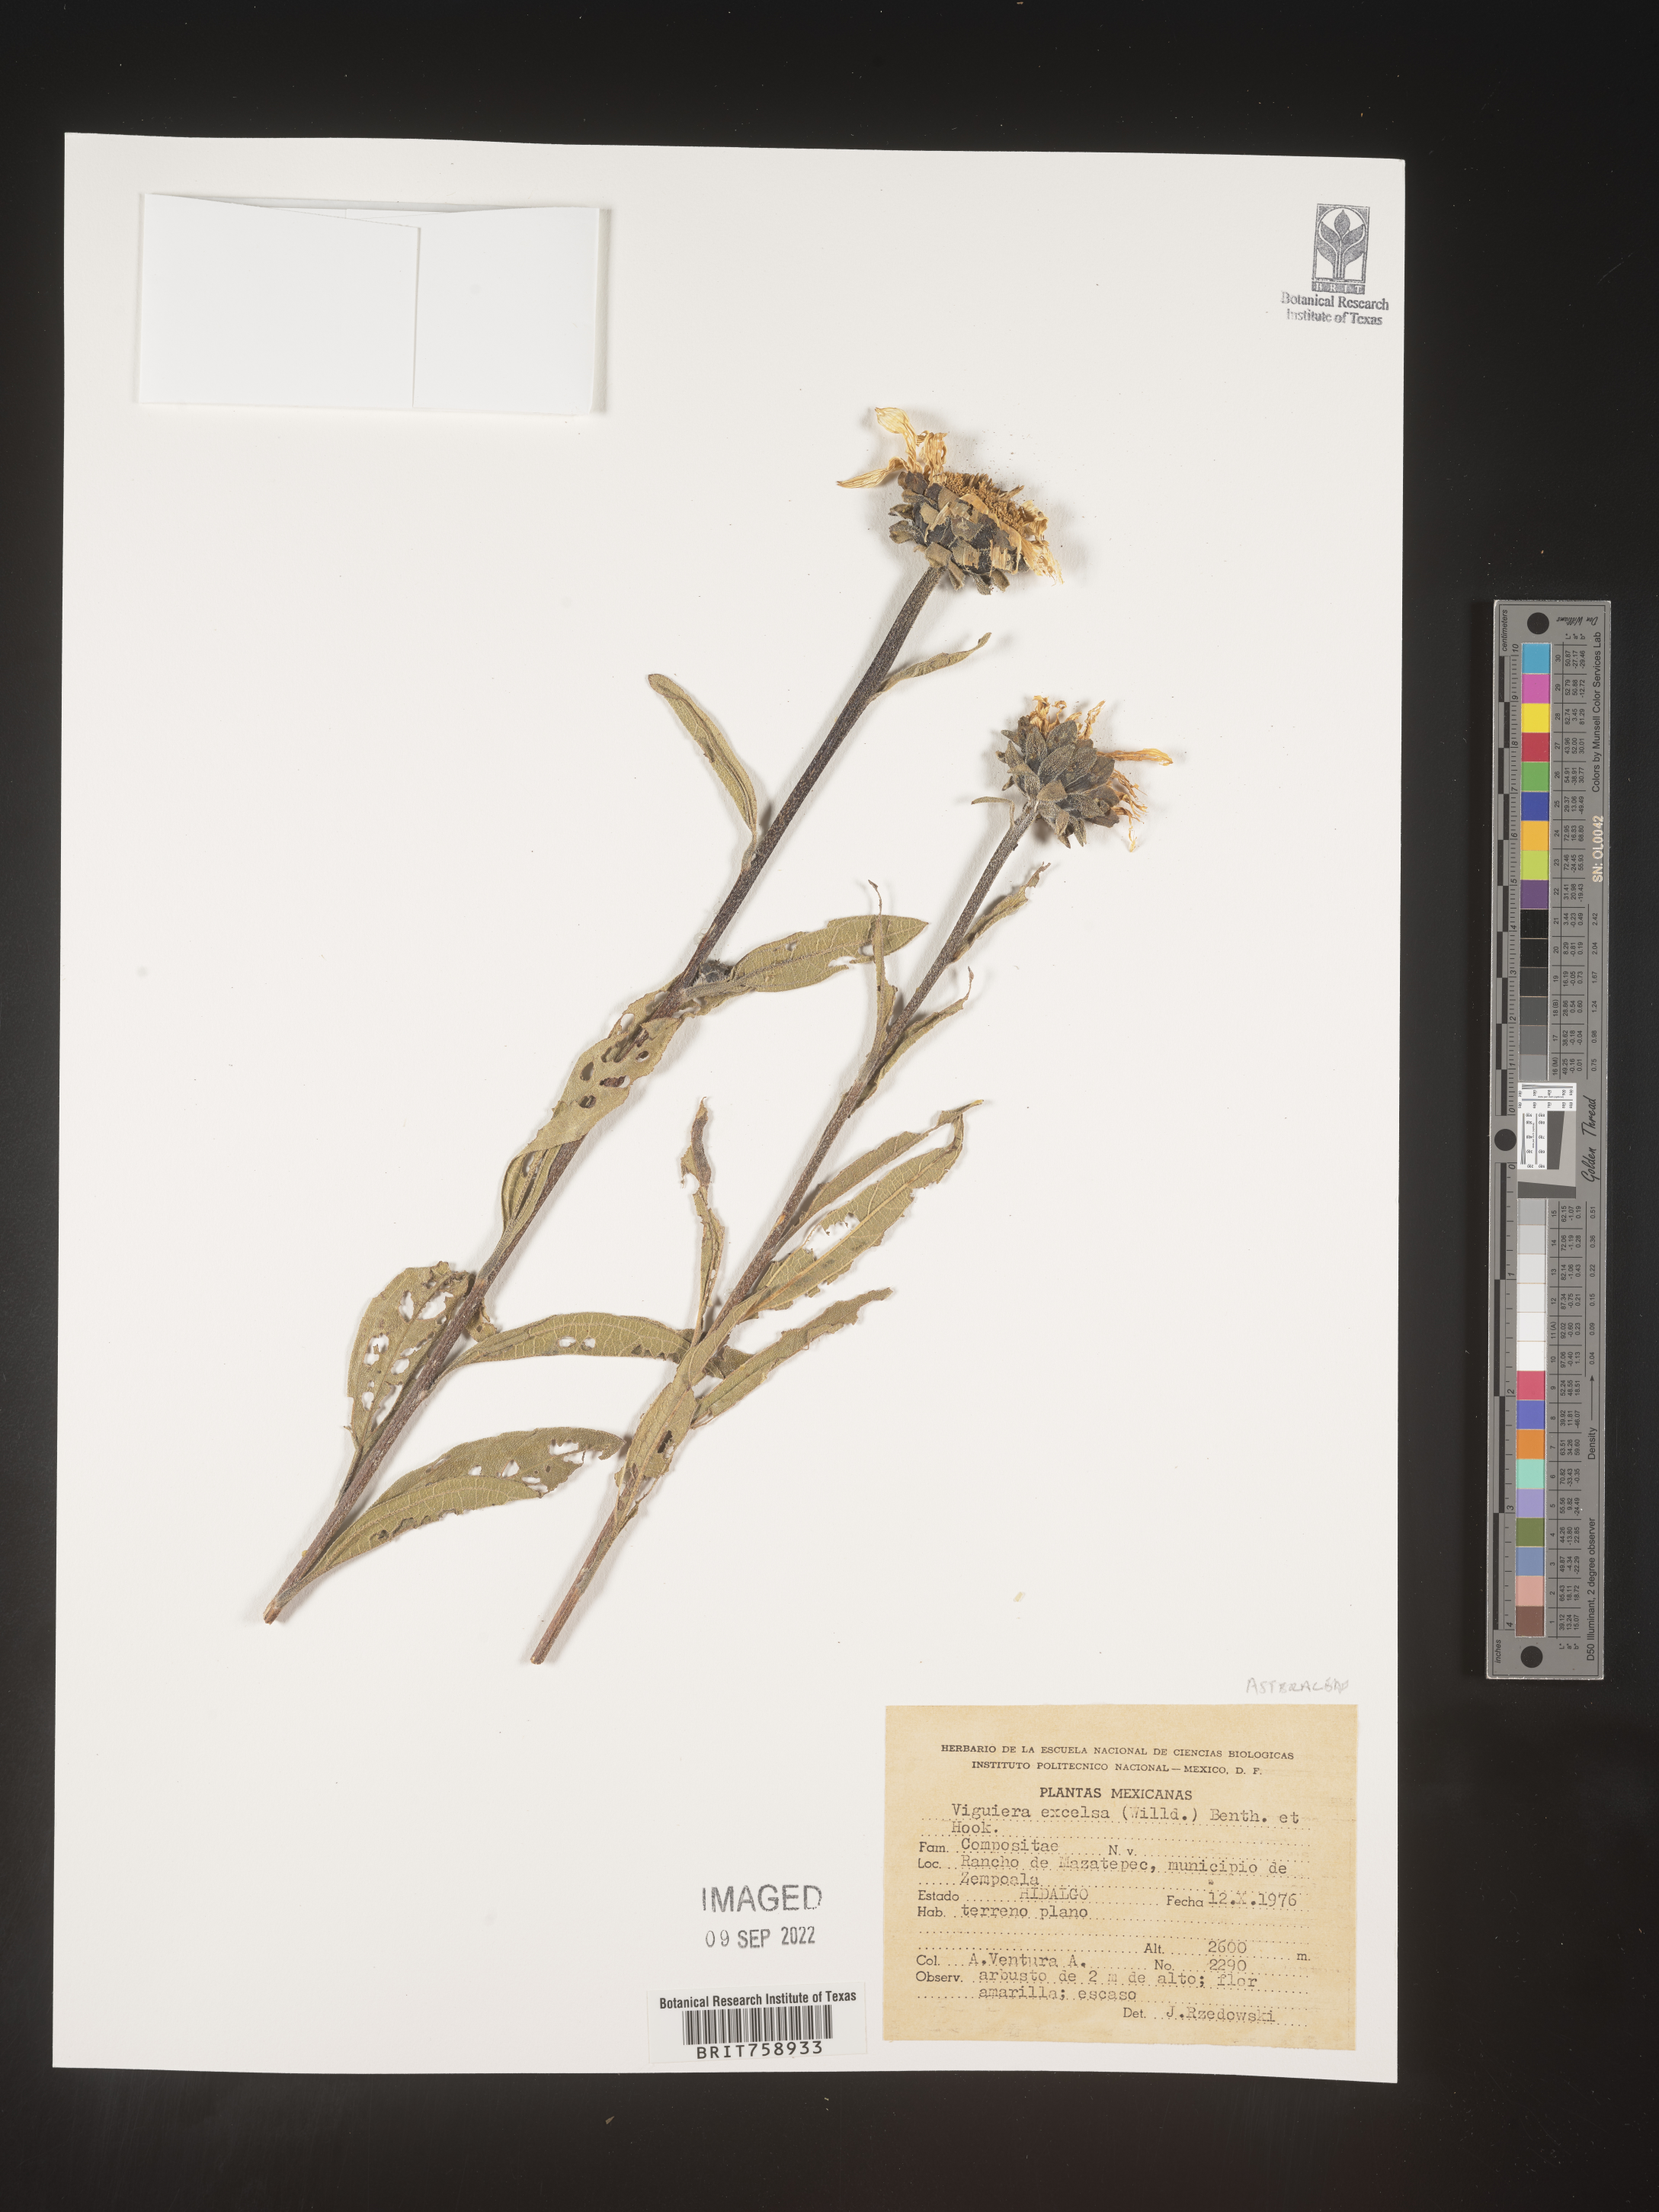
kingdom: Plantae
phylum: Tracheophyta
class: Magnoliopsida
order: Asterales
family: Asteraceae
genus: Viguiera
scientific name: Viguiera
